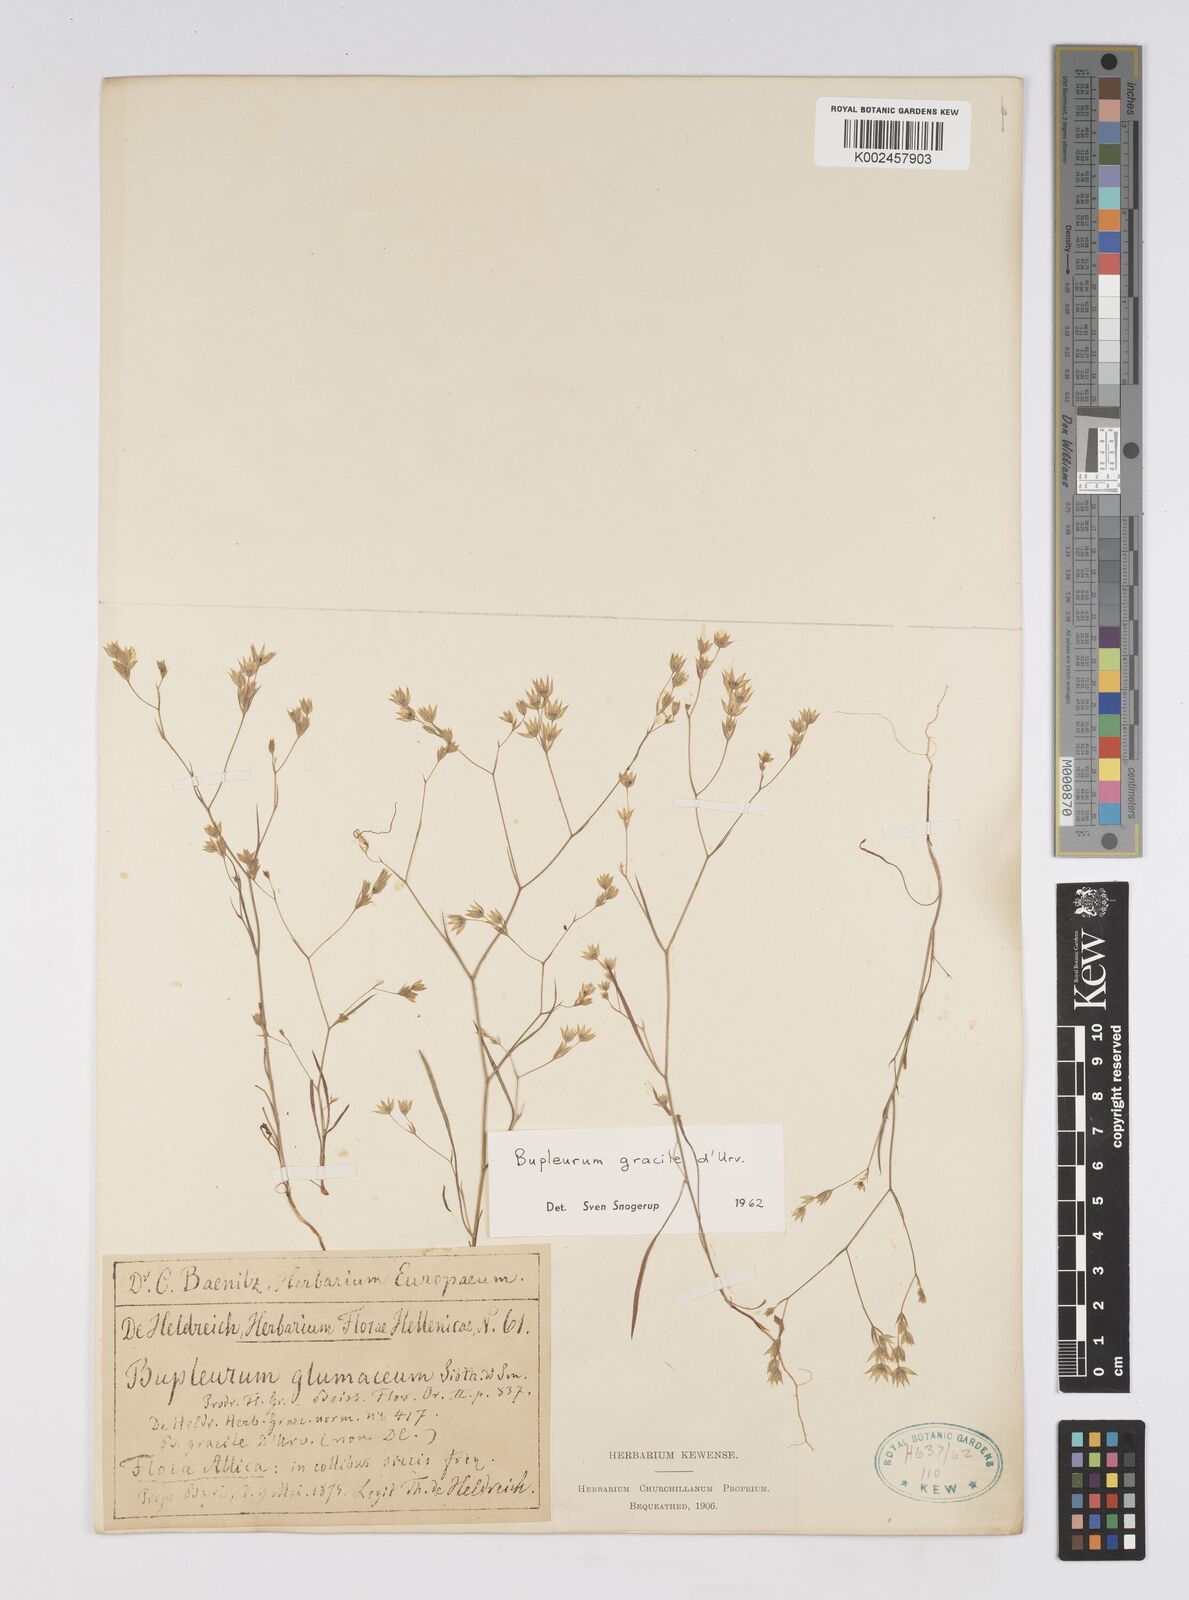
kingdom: Plantae
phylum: Tracheophyta
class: Magnoliopsida
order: Apiales
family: Apiaceae
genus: Bupleurum
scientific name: Bupleurum gracile
